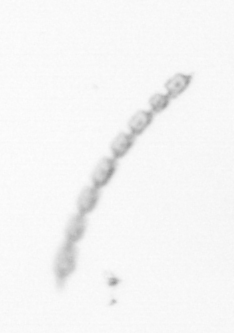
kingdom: Chromista
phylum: Ochrophyta
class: Bacillariophyceae
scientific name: Bacillariophyceae
